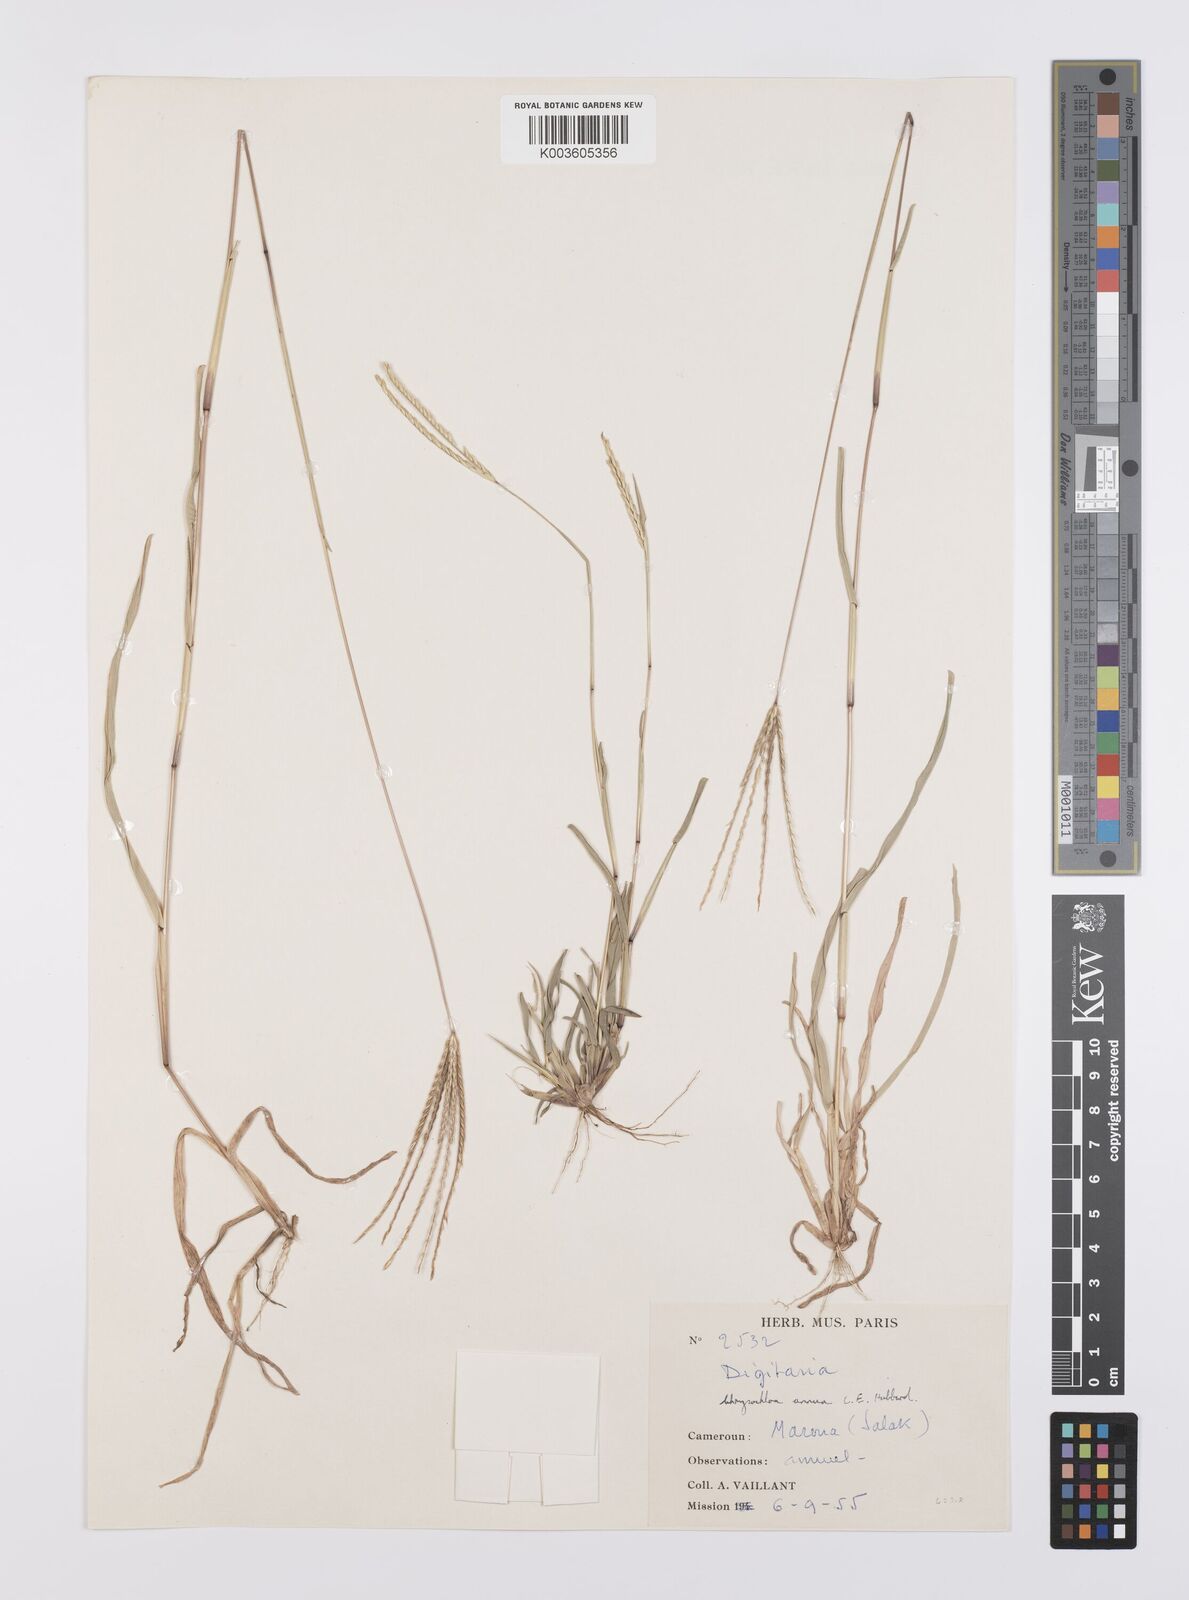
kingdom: Plantae
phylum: Tracheophyta
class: Liliopsida
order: Poales
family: Poaceae
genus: Chrysochloa
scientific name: Chrysochloa hindsii
